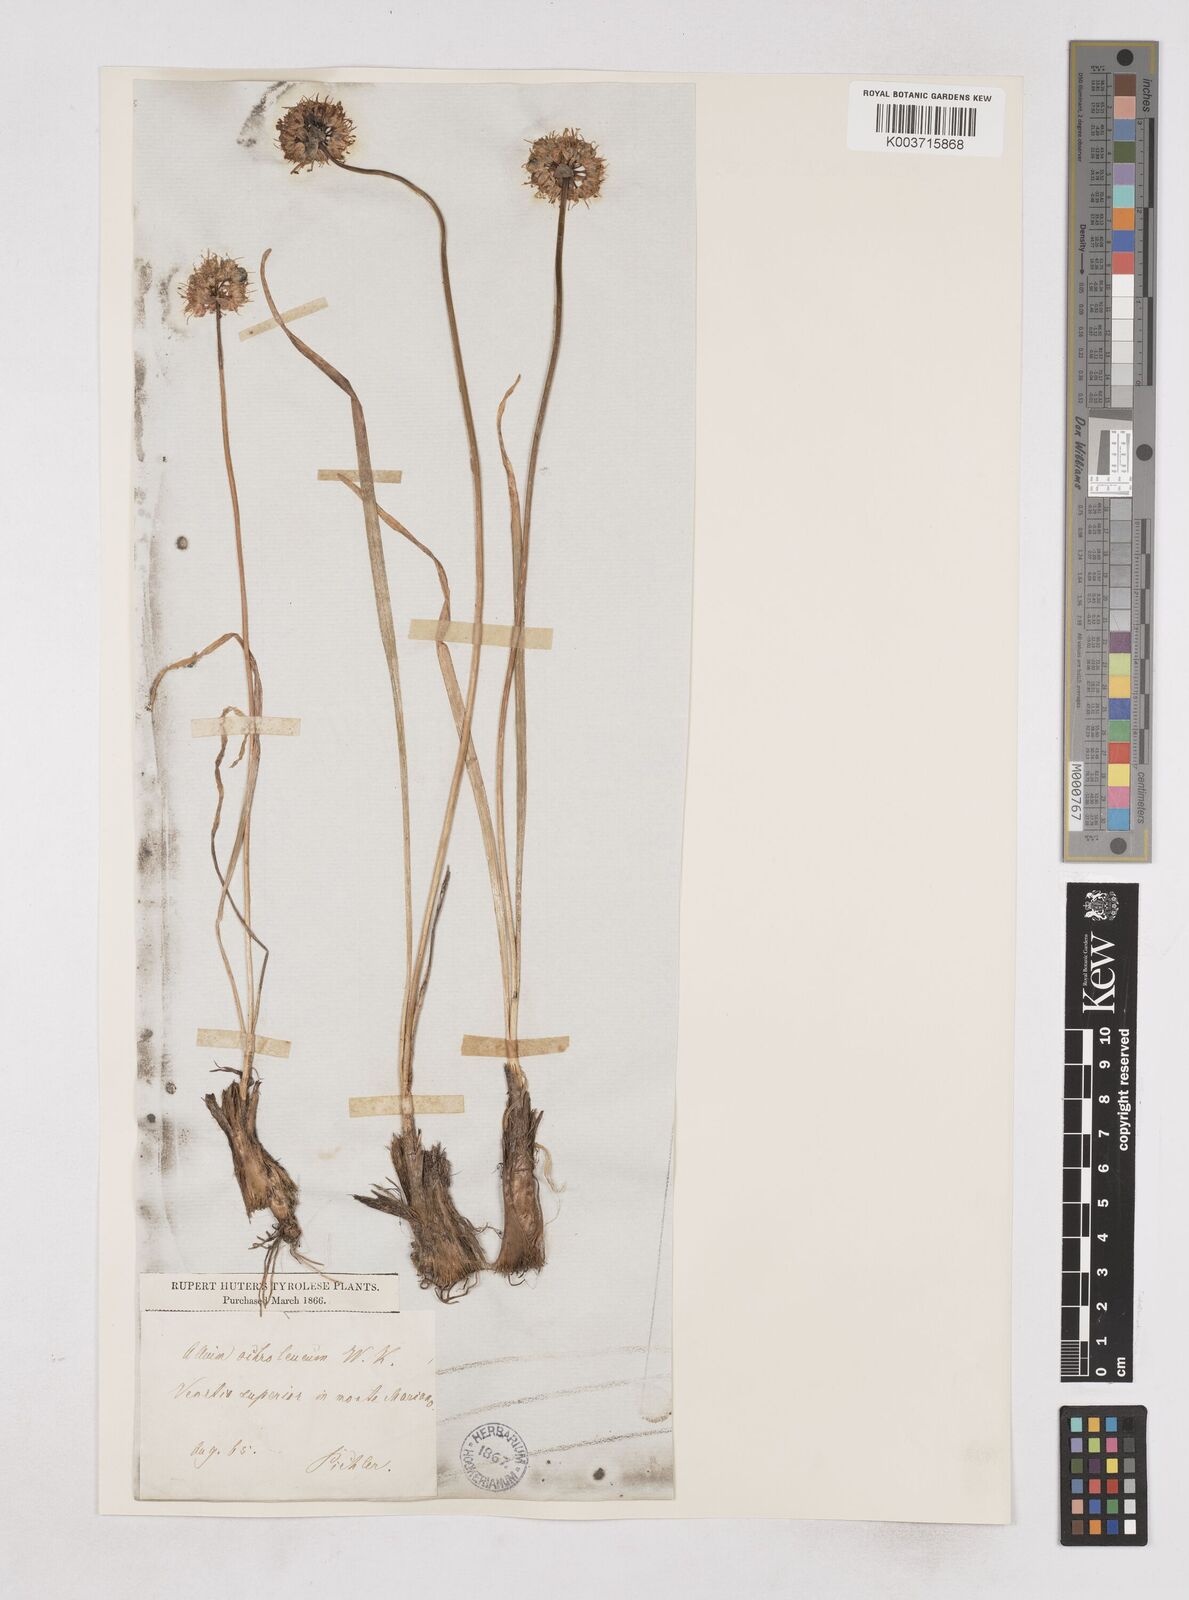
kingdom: Plantae
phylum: Tracheophyta
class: Liliopsida
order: Asparagales
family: Amaryllidaceae
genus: Allium
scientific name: Allium ericetorum
